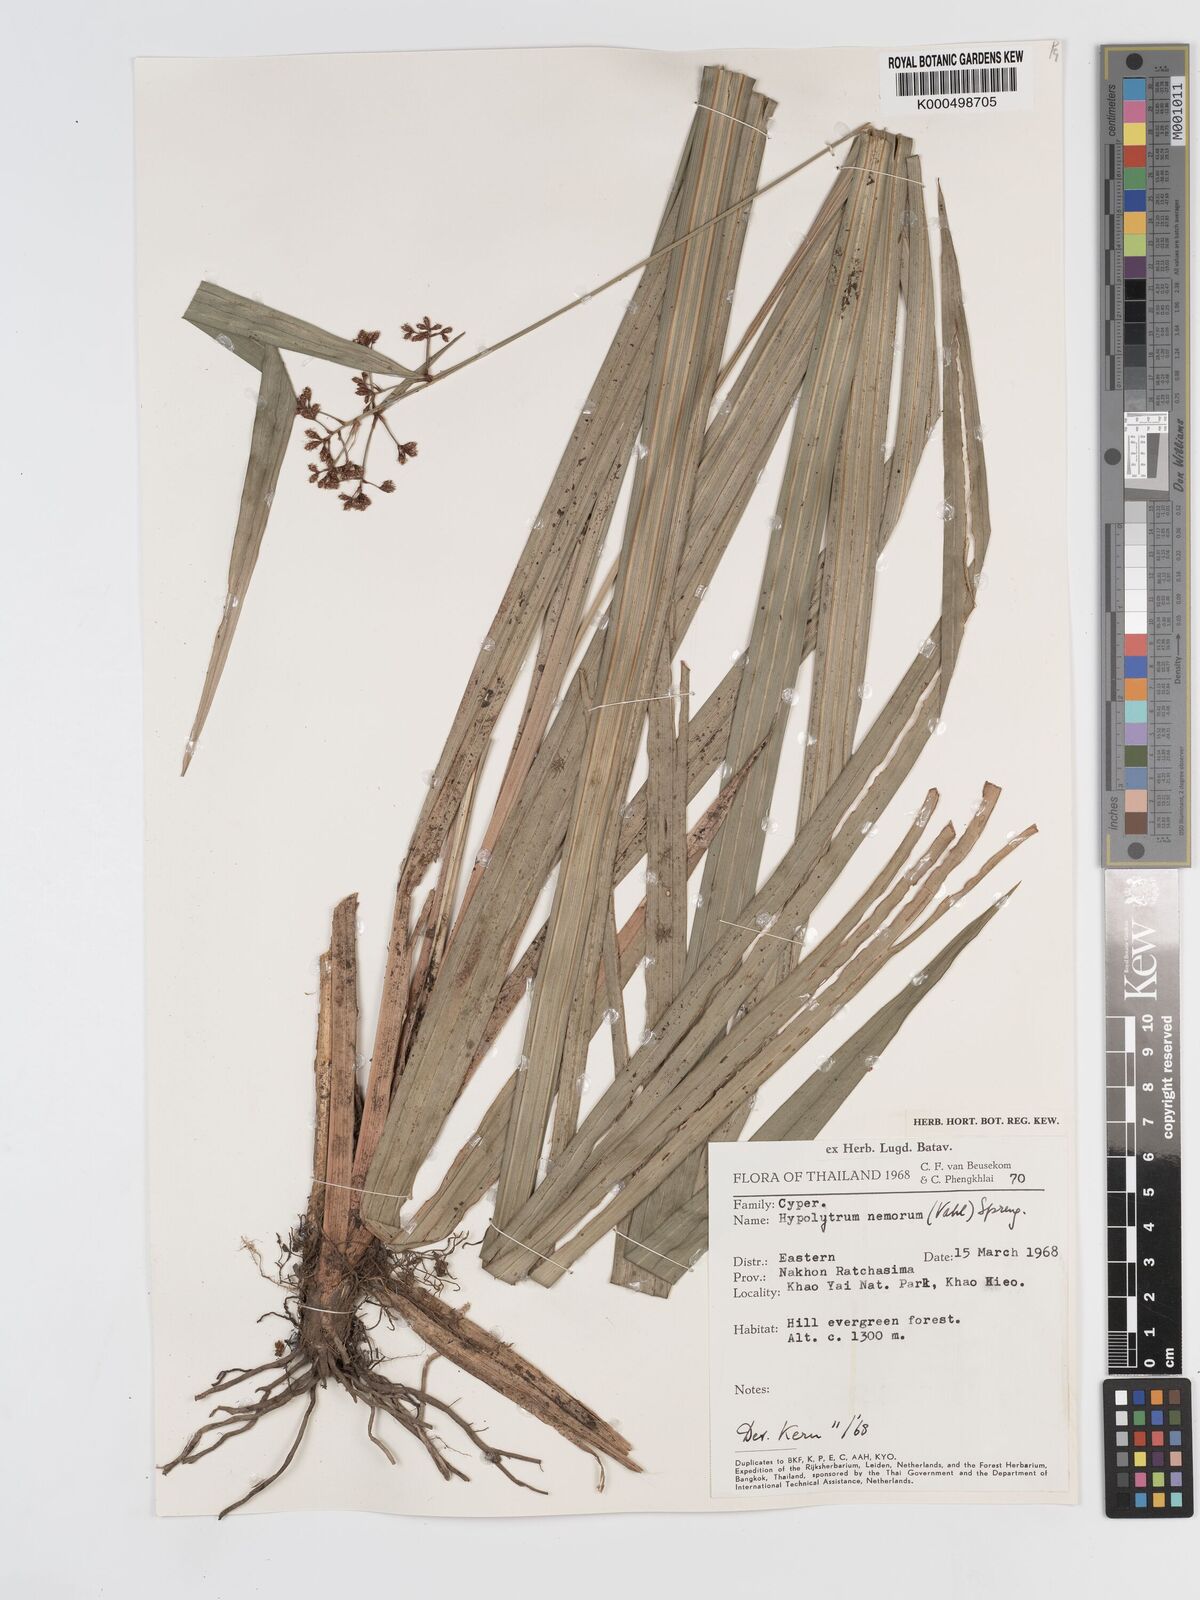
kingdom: Plantae
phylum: Tracheophyta
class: Liliopsida
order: Poales
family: Cyperaceae
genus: Hypolytrum
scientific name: Hypolytrum nemorum
